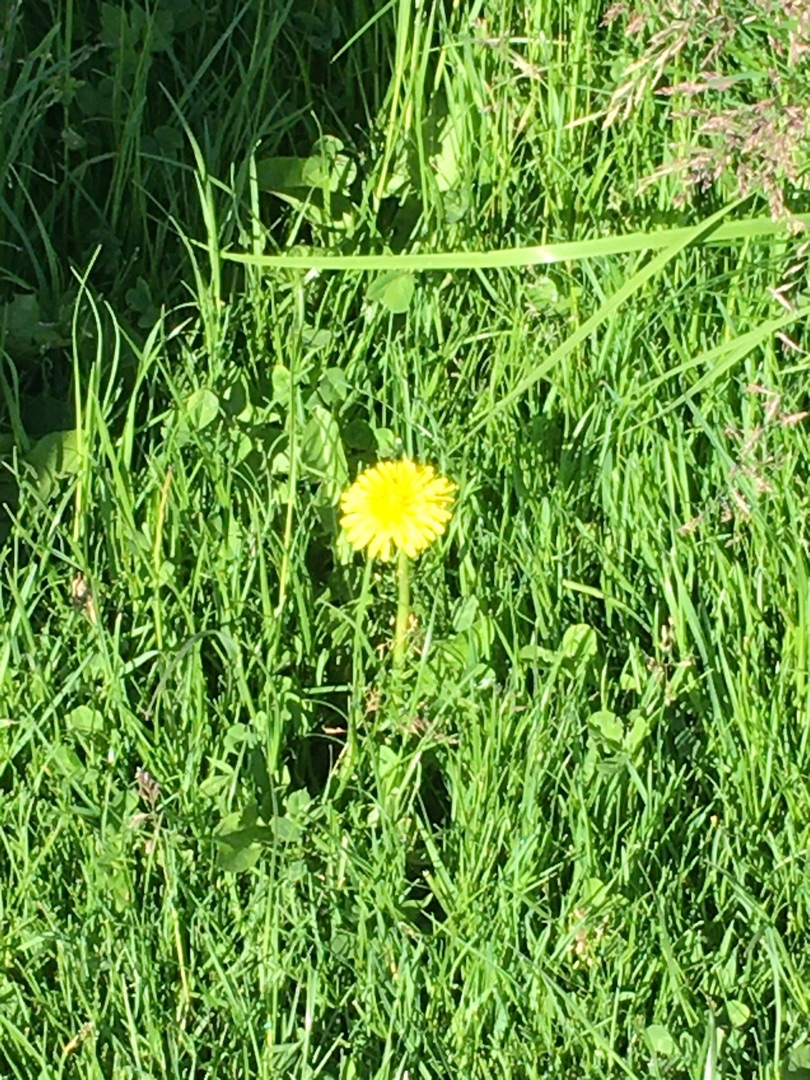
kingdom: Plantae
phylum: Tracheophyta
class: Magnoliopsida
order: Asterales
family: Asteraceae
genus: Taraxacum
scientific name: Taraxacum
